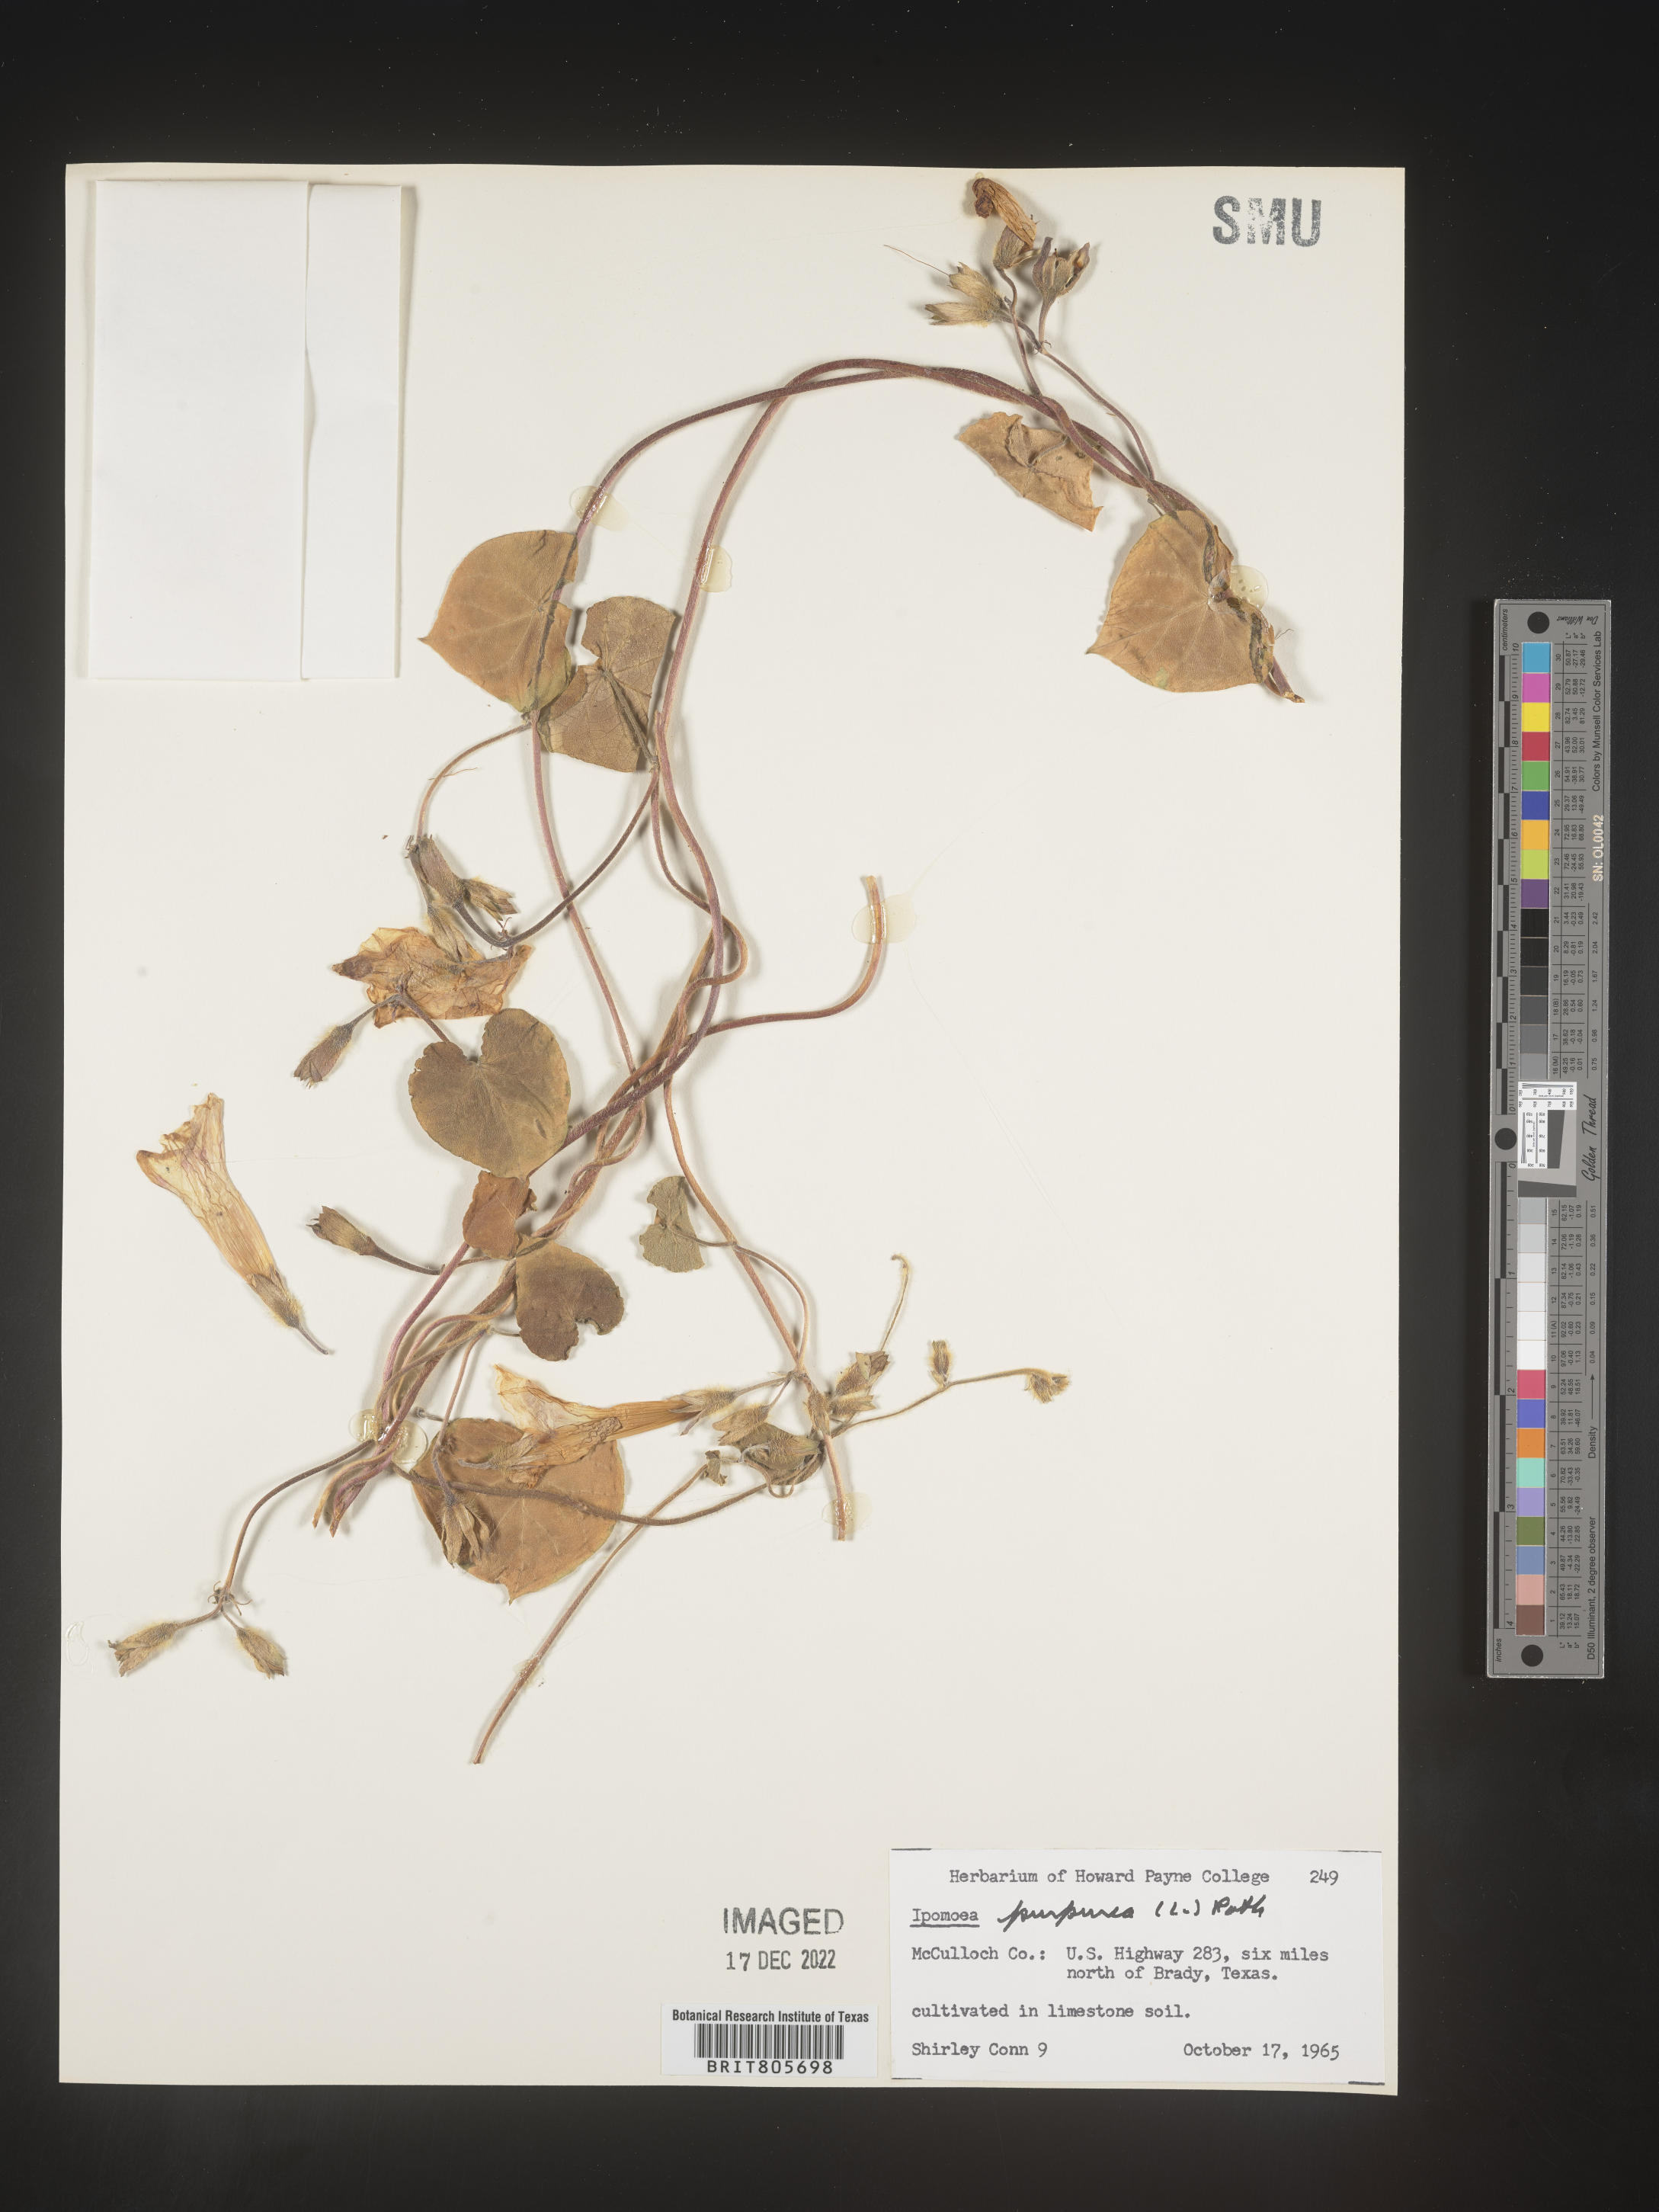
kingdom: Plantae
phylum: Tracheophyta
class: Magnoliopsida
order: Solanales
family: Convolvulaceae
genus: Ipomoea
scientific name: Ipomoea purpurea
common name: Common morning-glory
